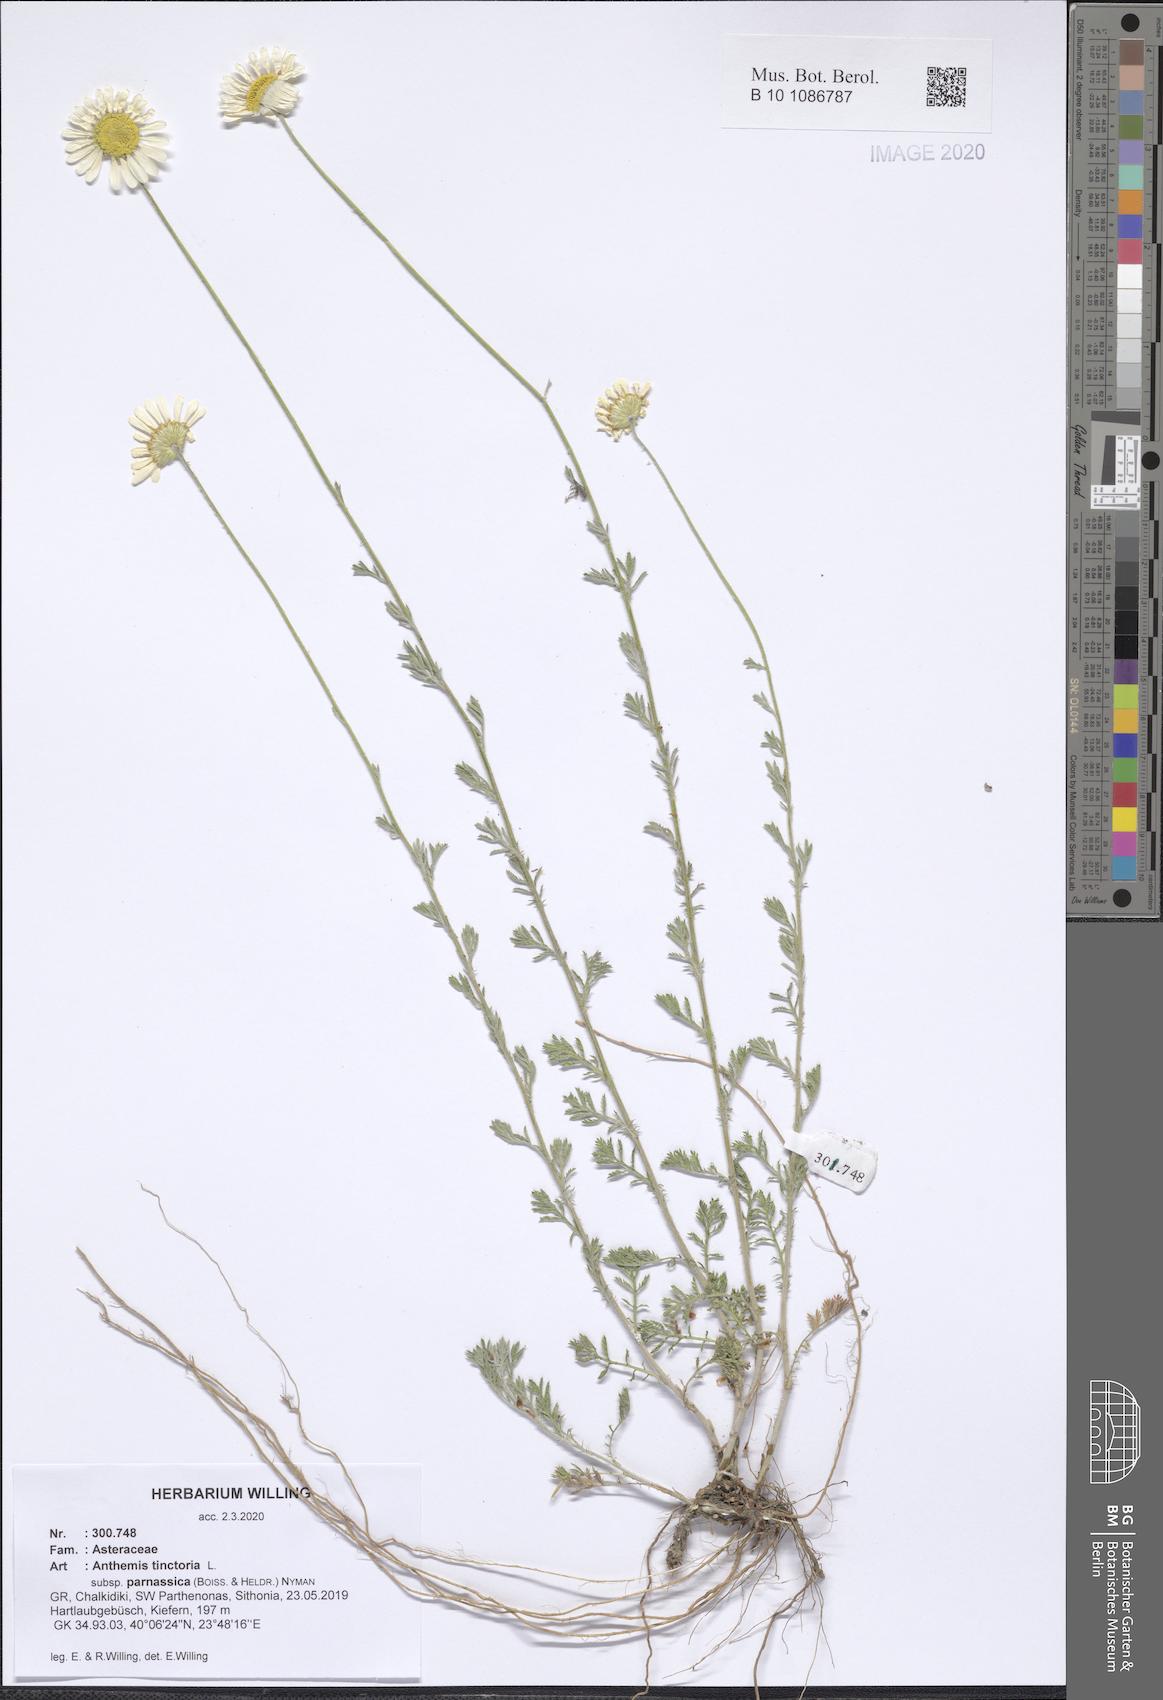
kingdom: Plantae
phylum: Tracheophyta
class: Magnoliopsida
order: Asterales
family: Asteraceae
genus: Cota
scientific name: Cota tinctoria
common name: Golden chamomile
